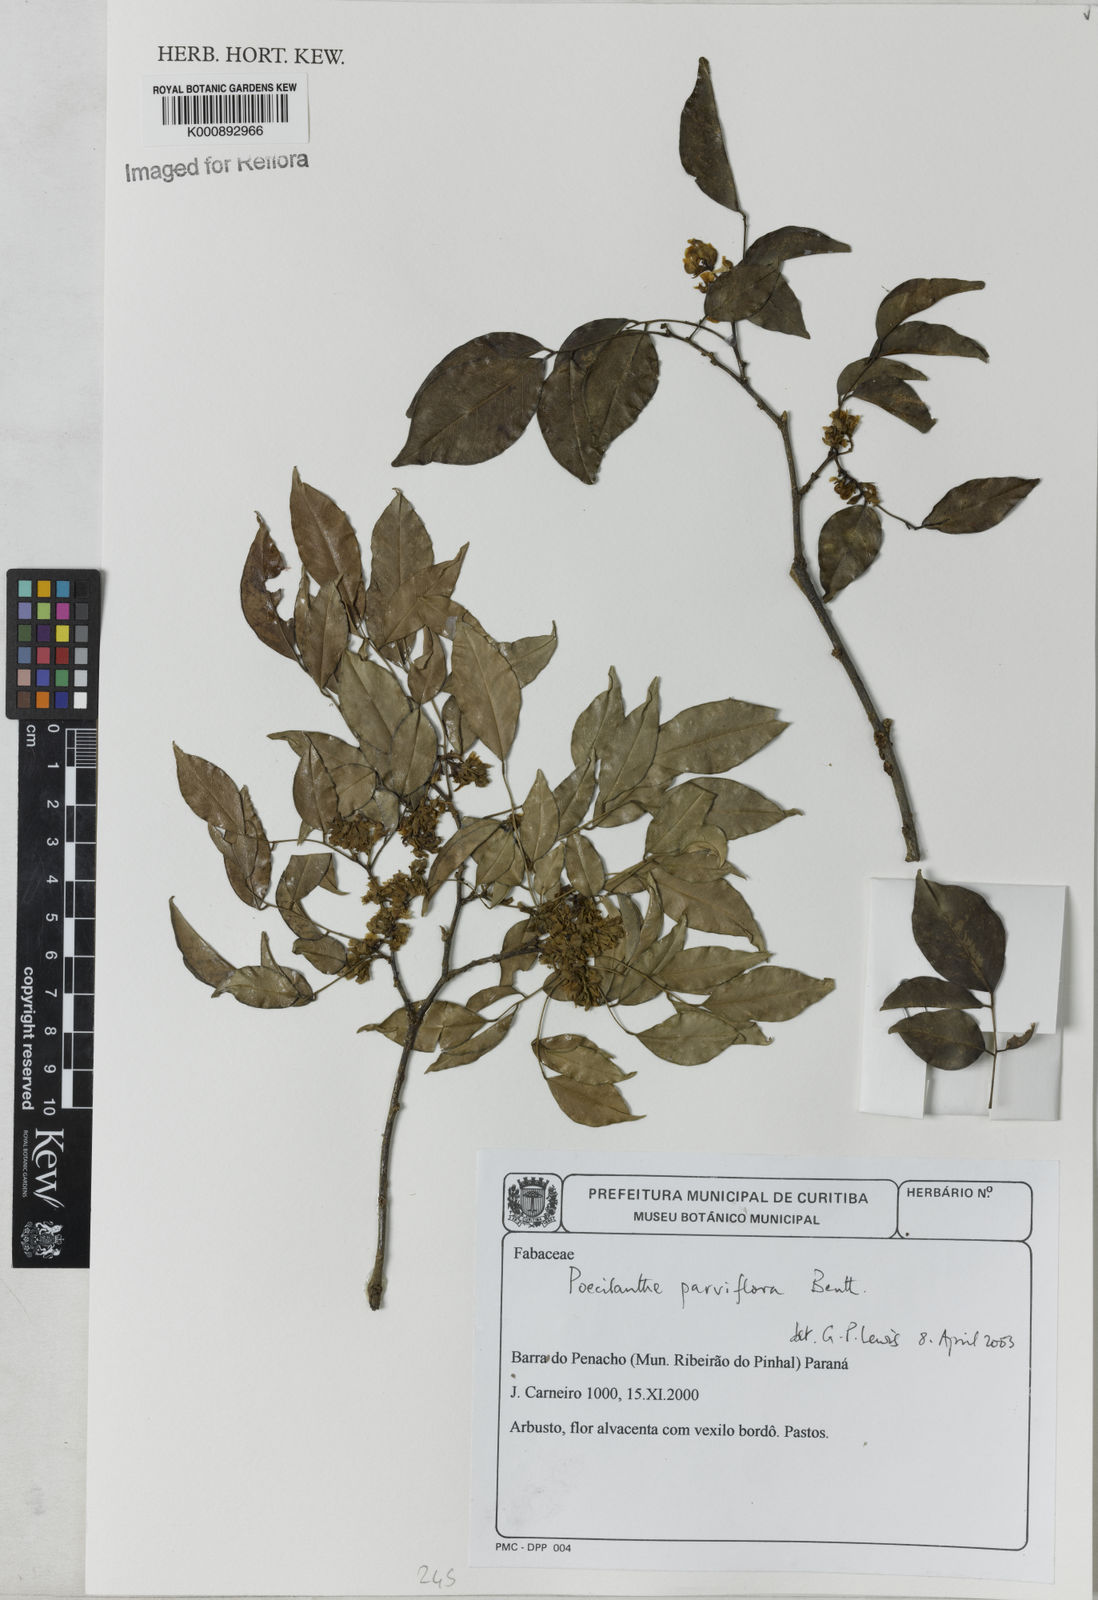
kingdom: Plantae
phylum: Tracheophyta
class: Magnoliopsida
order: Fabales
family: Fabaceae
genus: Poecilanthe
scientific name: Poecilanthe parviflora
